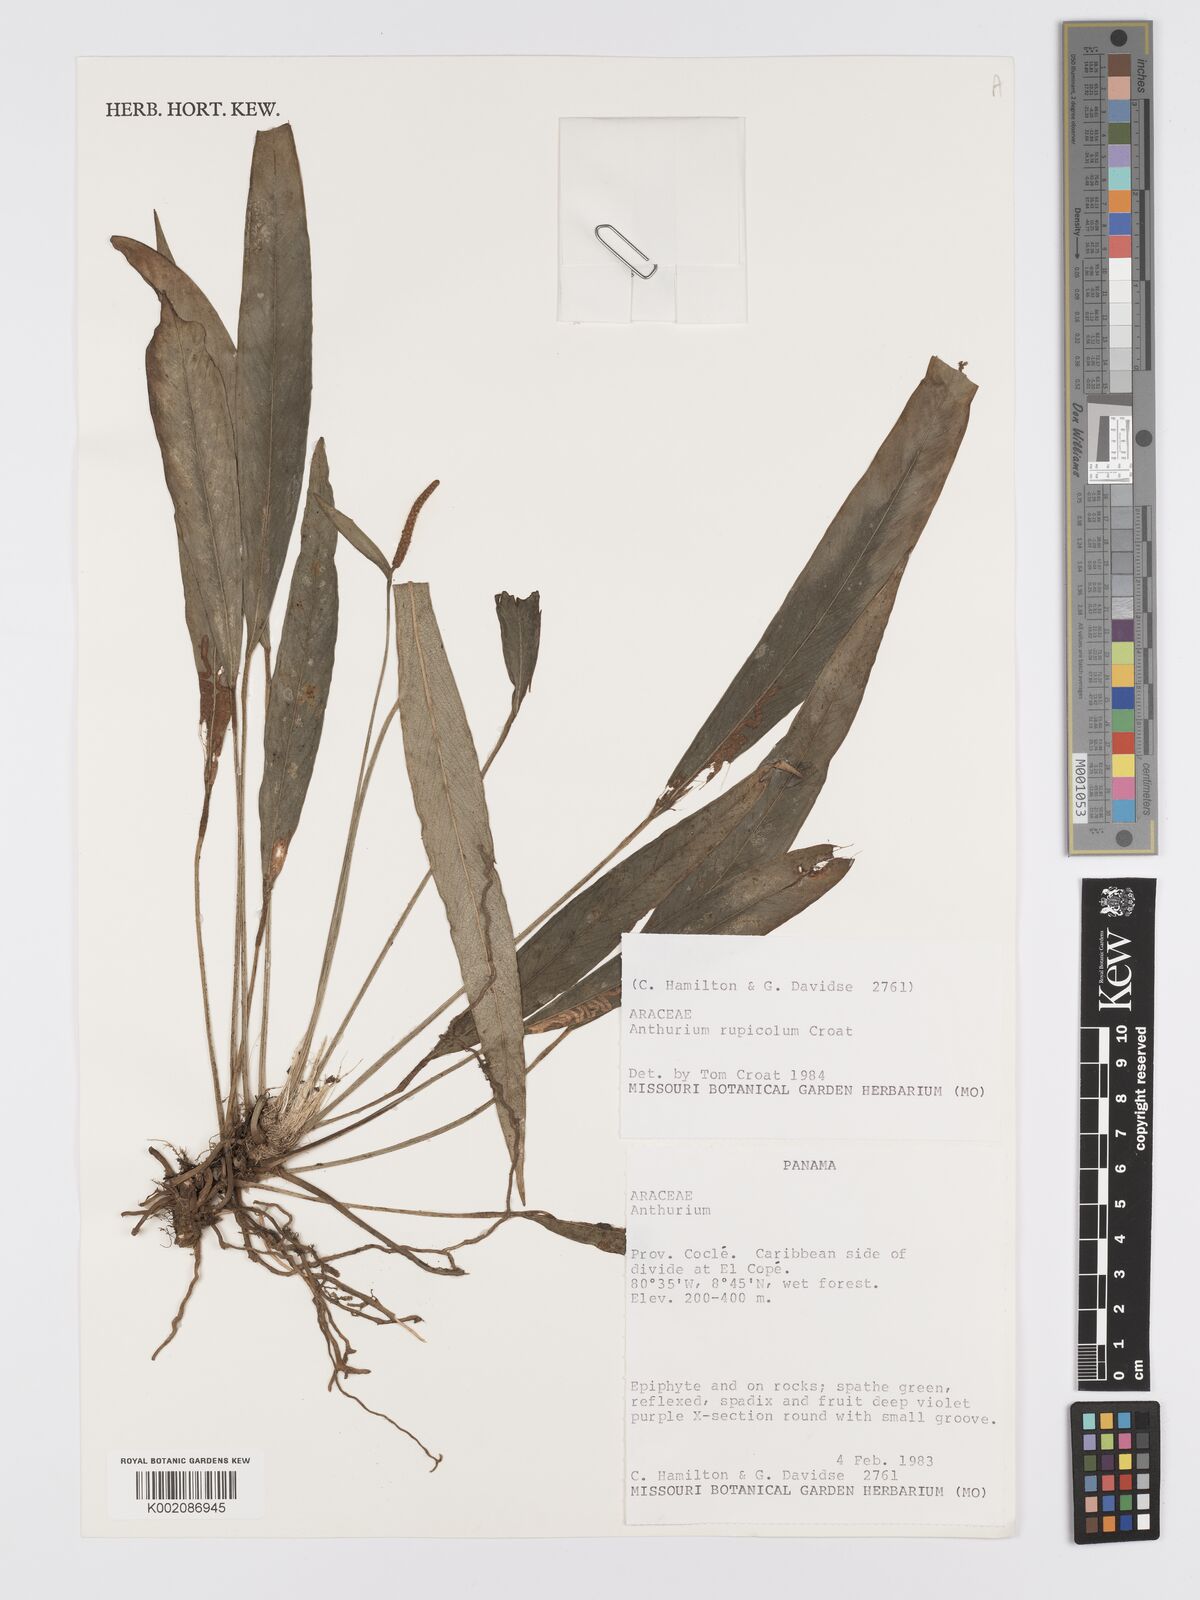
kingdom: Plantae
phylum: Tracheophyta
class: Liliopsida
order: Alismatales
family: Araceae
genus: Anthurium
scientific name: Anthurium rupicola
